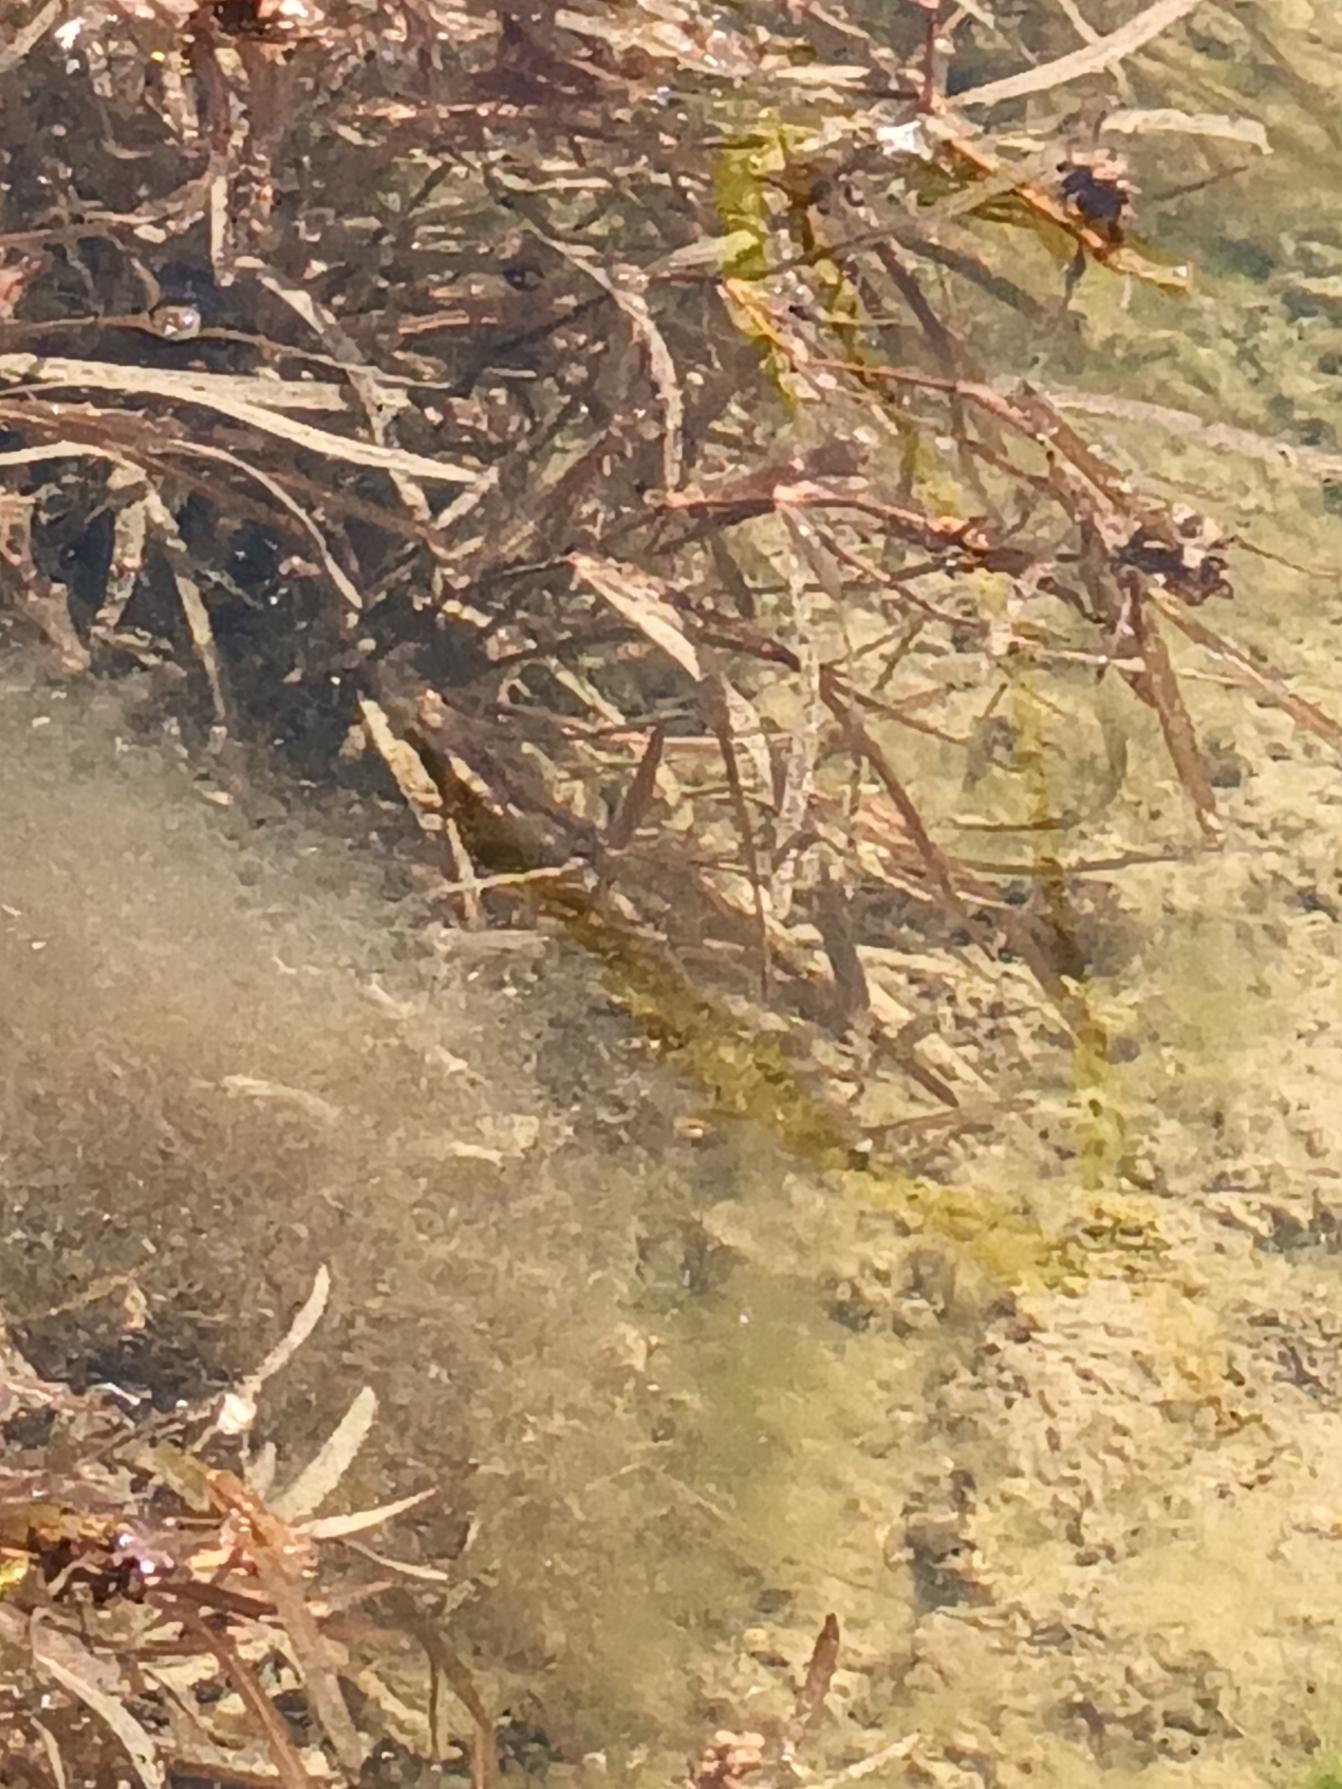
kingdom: Plantae
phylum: Tracheophyta
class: Liliopsida
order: Alismatales
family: Potamogetonaceae
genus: Potamogeton
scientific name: Potamogeton obtusifolius
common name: Butbladet vandaks
